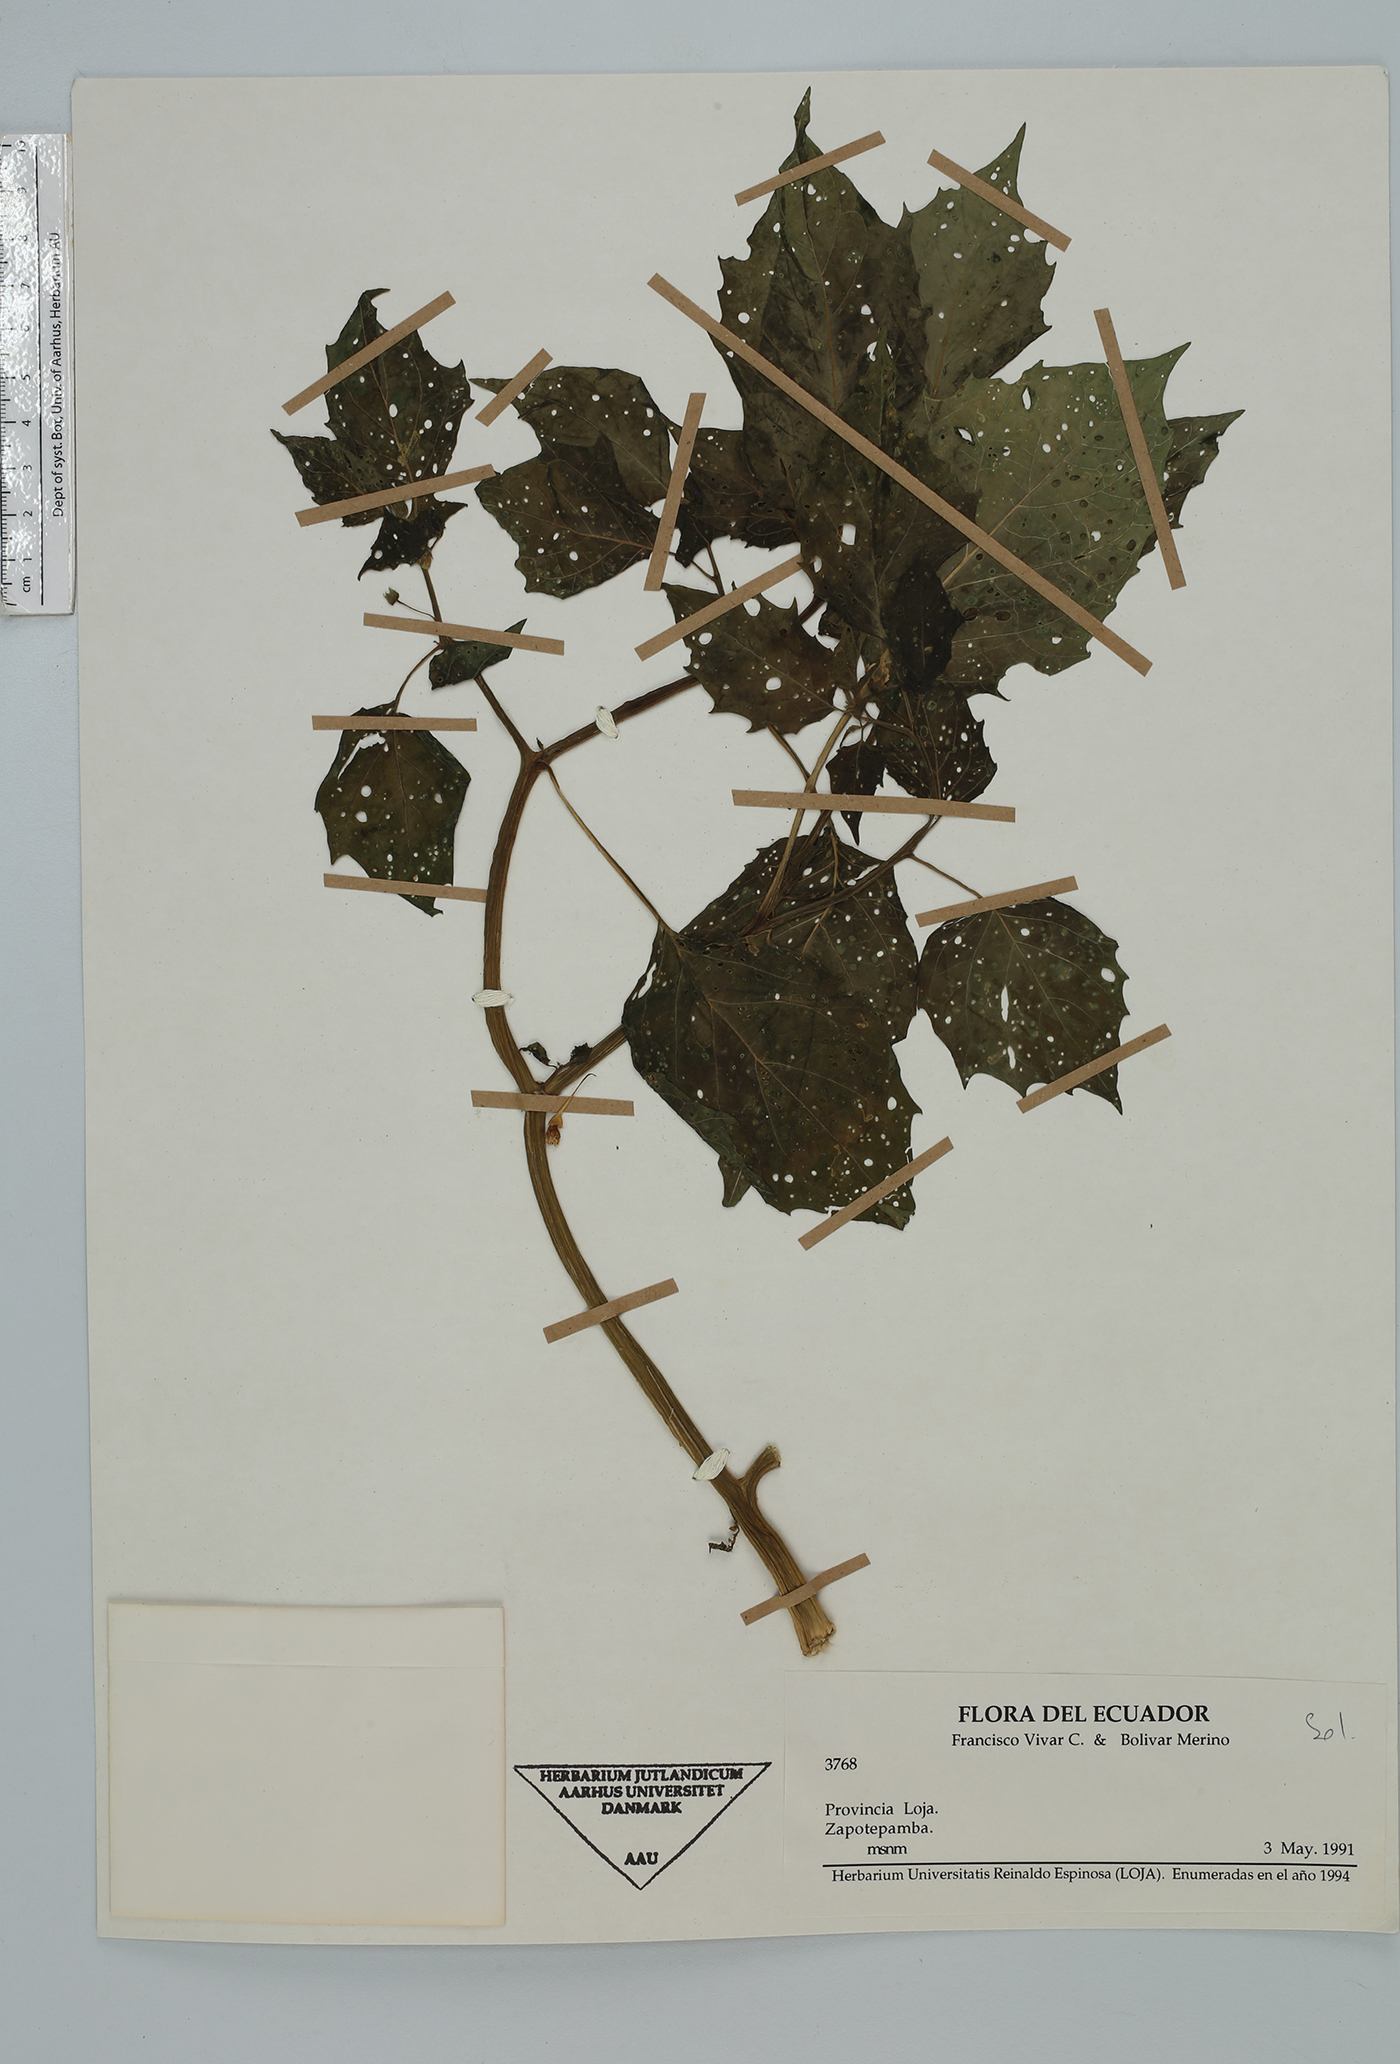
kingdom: Plantae
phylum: Tracheophyta
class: Magnoliopsida
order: Solanales
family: Solanaceae
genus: Physalis
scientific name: Physalis
